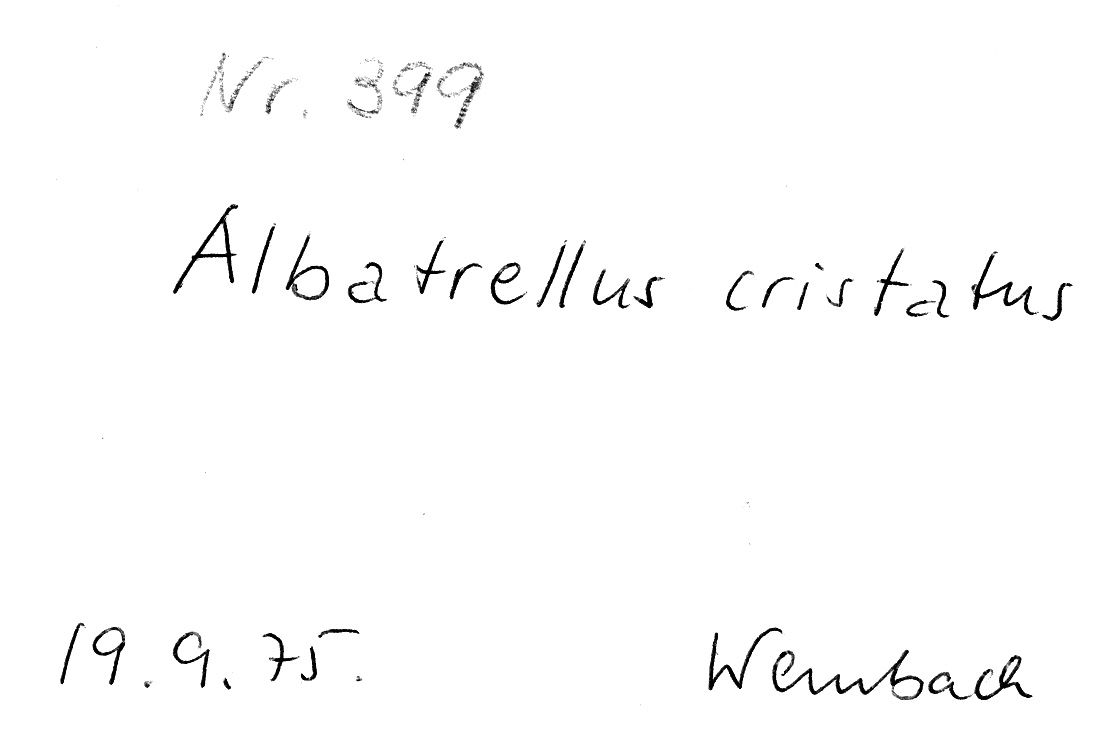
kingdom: Fungi
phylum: Basidiomycota
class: Agaricomycetes
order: Russulales
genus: Laeticutis
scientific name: Laeticutis cristata
